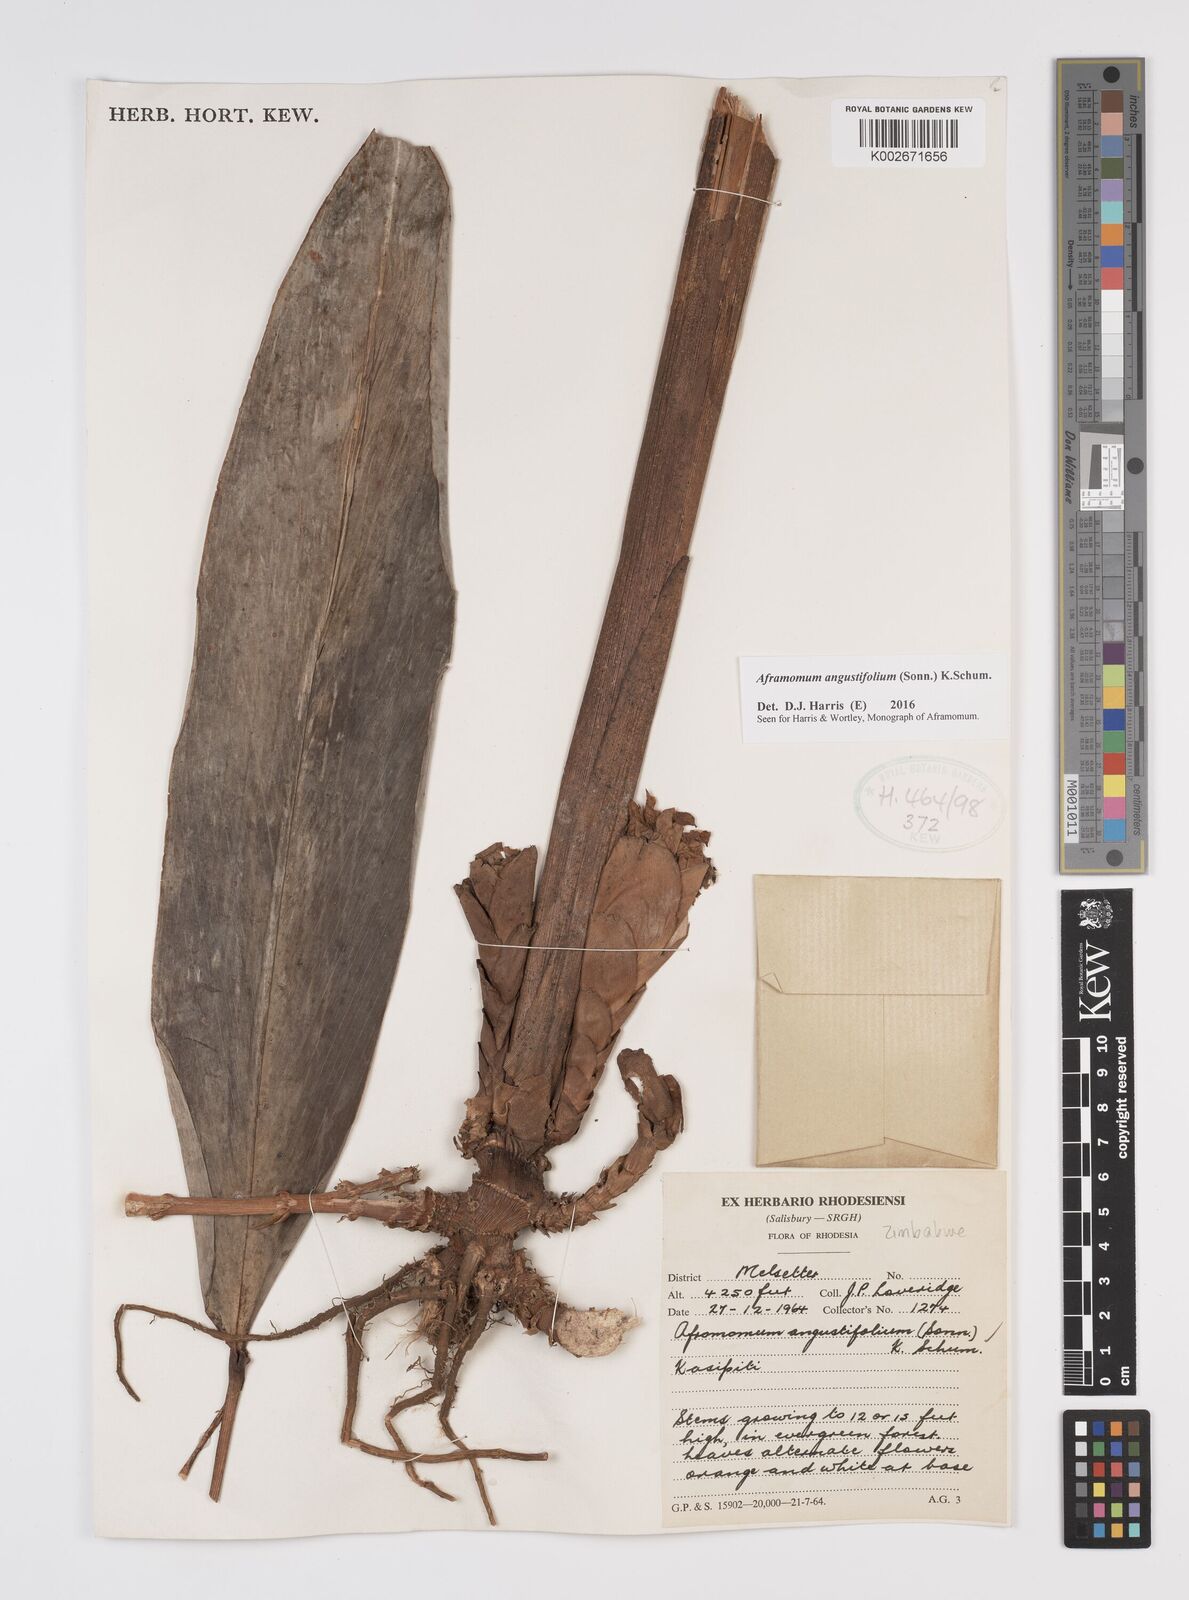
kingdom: Plantae
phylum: Tracheophyta
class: Liliopsida
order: Zingiberales
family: Zingiberaceae
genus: Aframomum
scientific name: Aframomum
